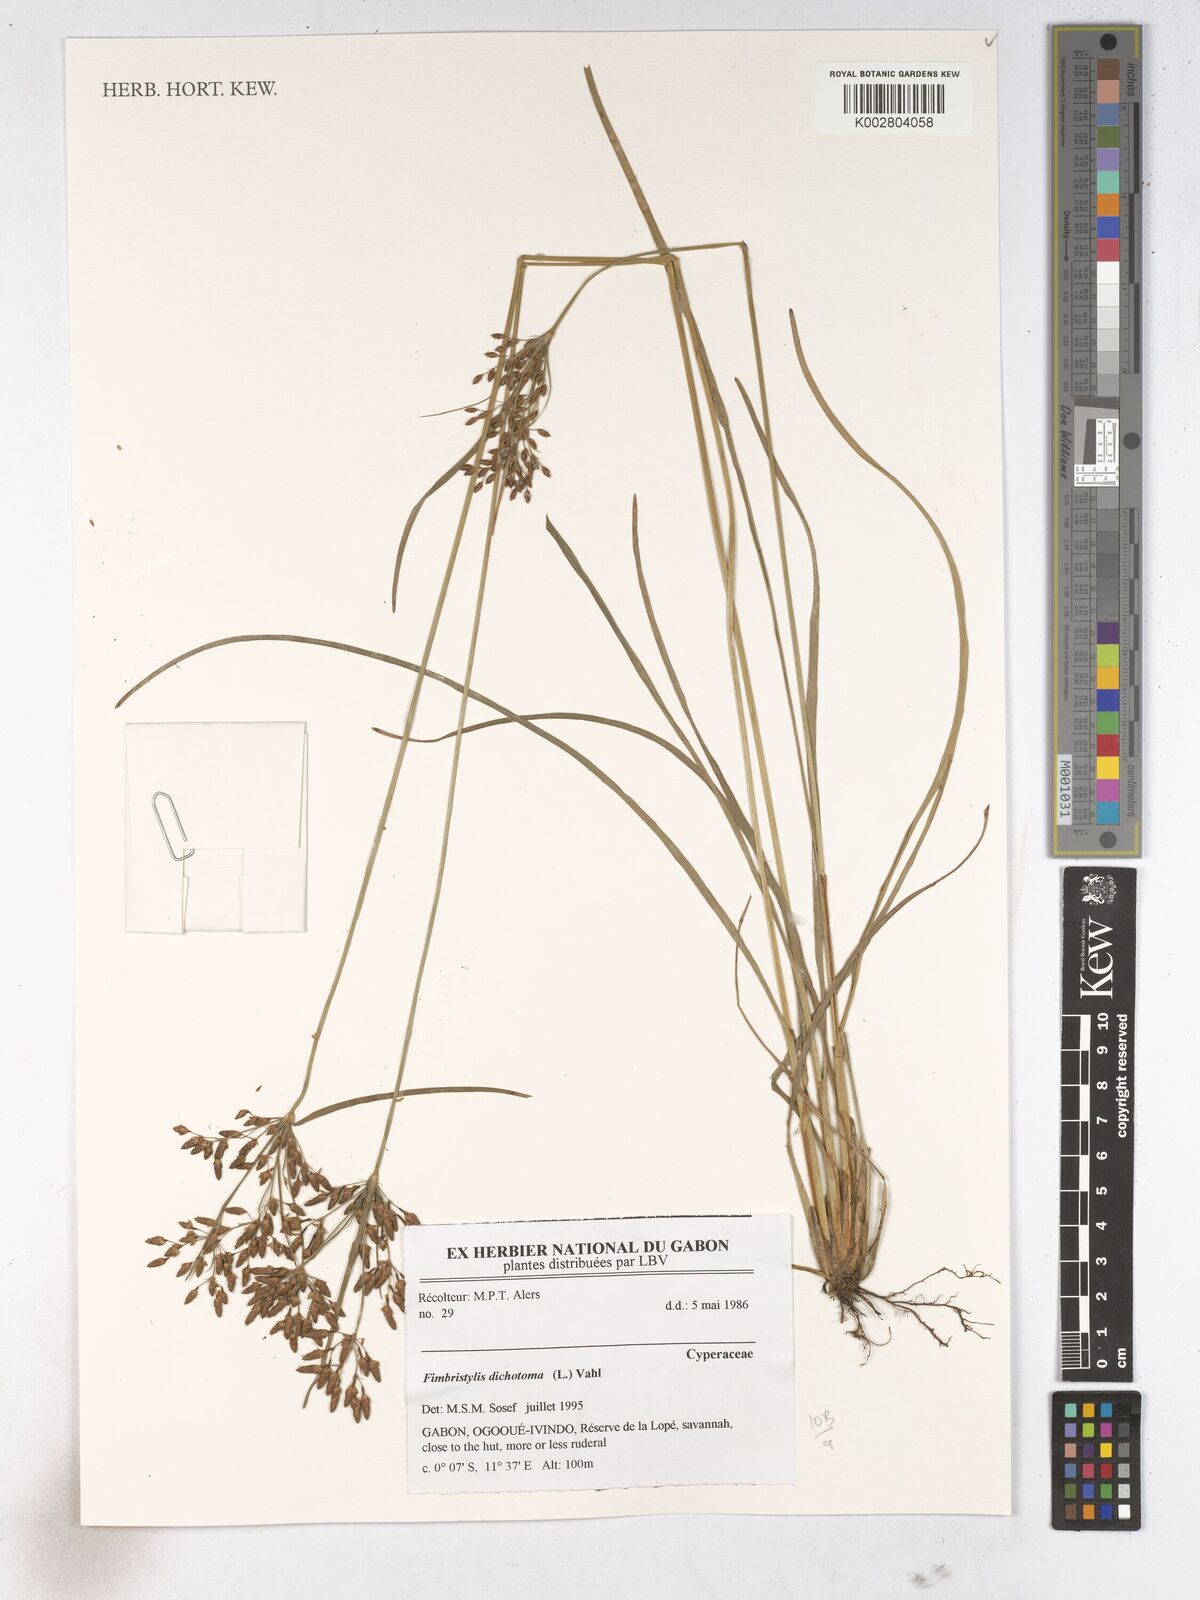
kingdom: Plantae
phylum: Tracheophyta
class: Liliopsida
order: Poales
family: Cyperaceae
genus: Fimbristylis
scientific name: Fimbristylis dichotoma
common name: Forked fimbry
